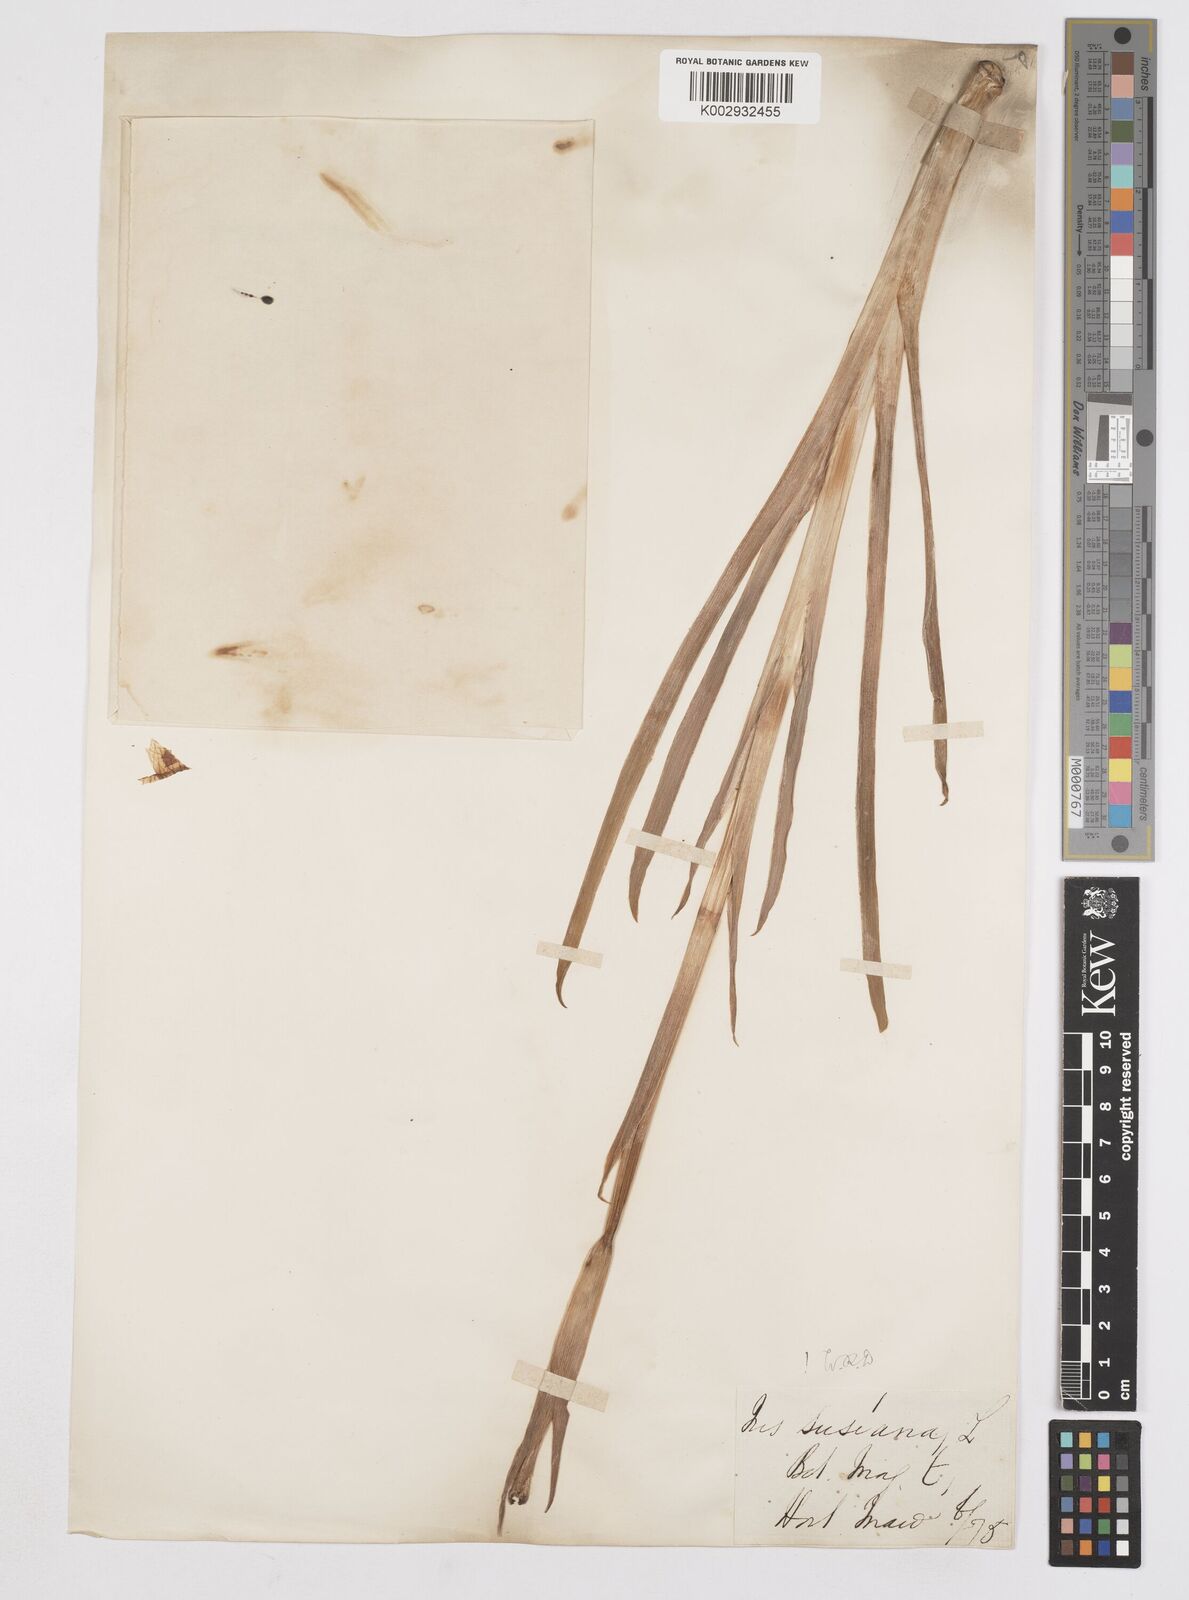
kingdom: Plantae
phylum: Tracheophyta
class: Liliopsida
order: Asparagales
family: Iridaceae
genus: Iris
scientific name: Iris susiana
